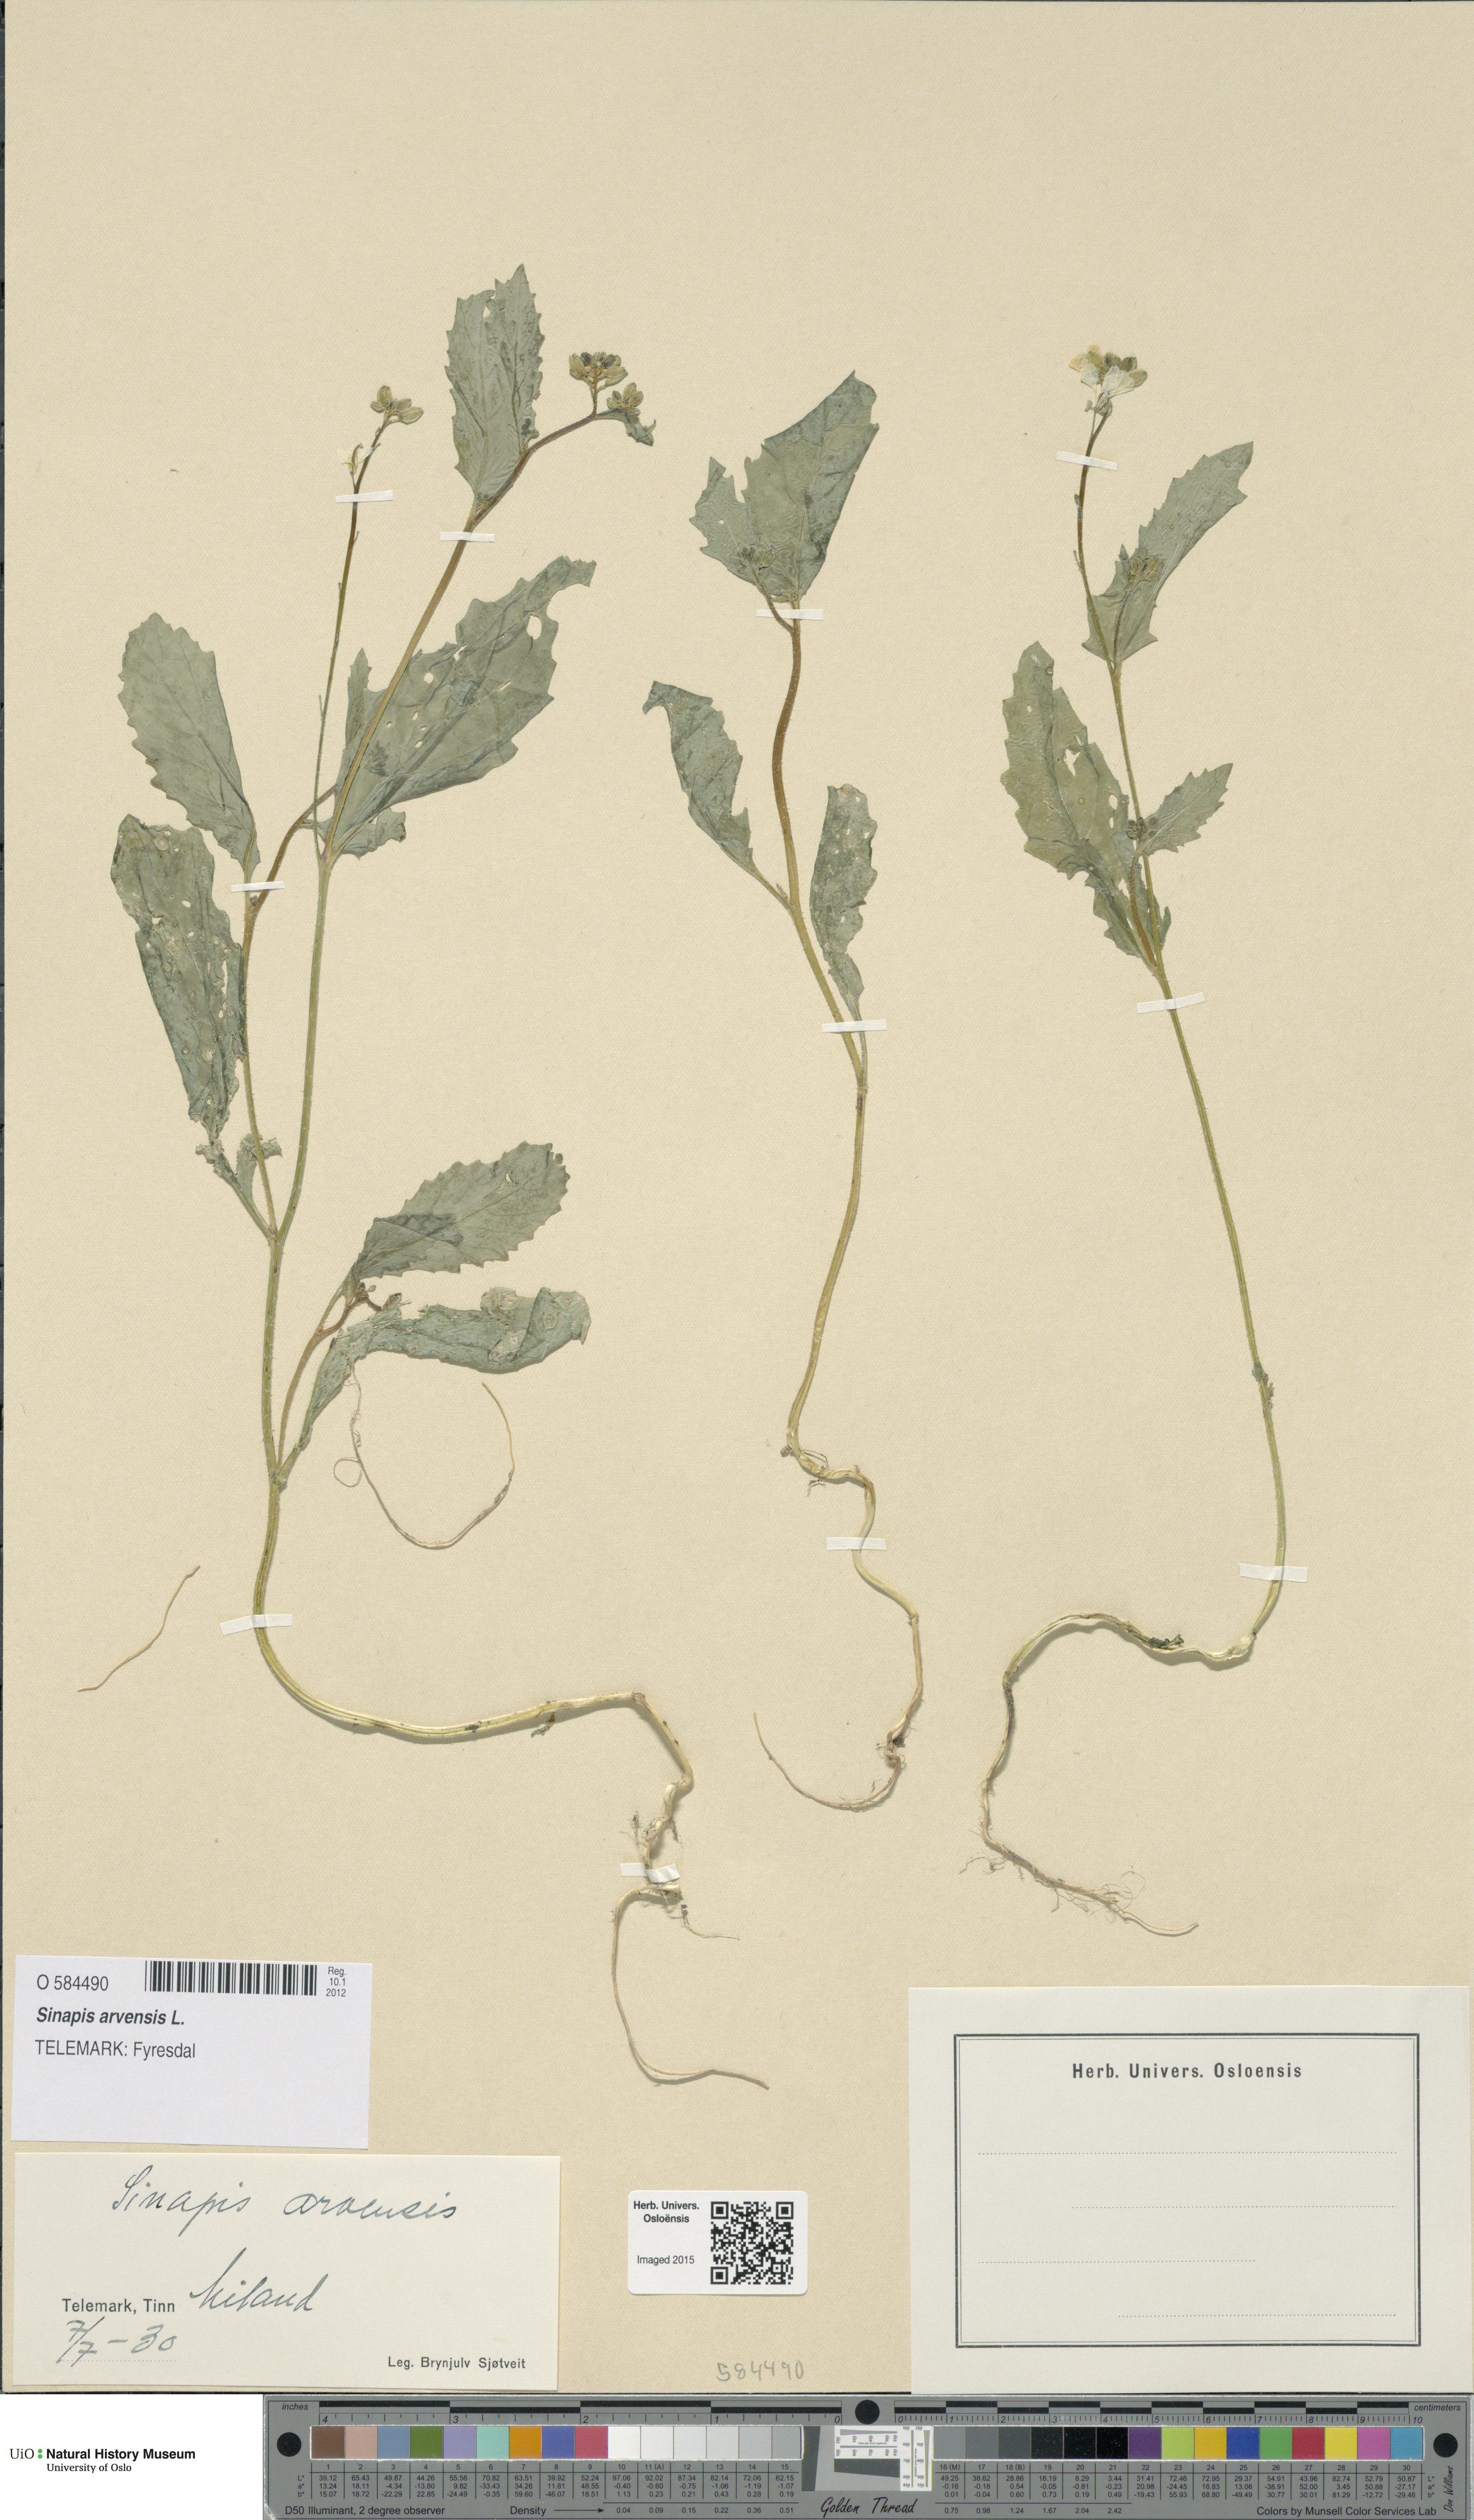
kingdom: Plantae
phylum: Tracheophyta
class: Magnoliopsida
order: Brassicales
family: Brassicaceae
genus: Sinapis
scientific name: Sinapis arvensis
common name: Charlock
